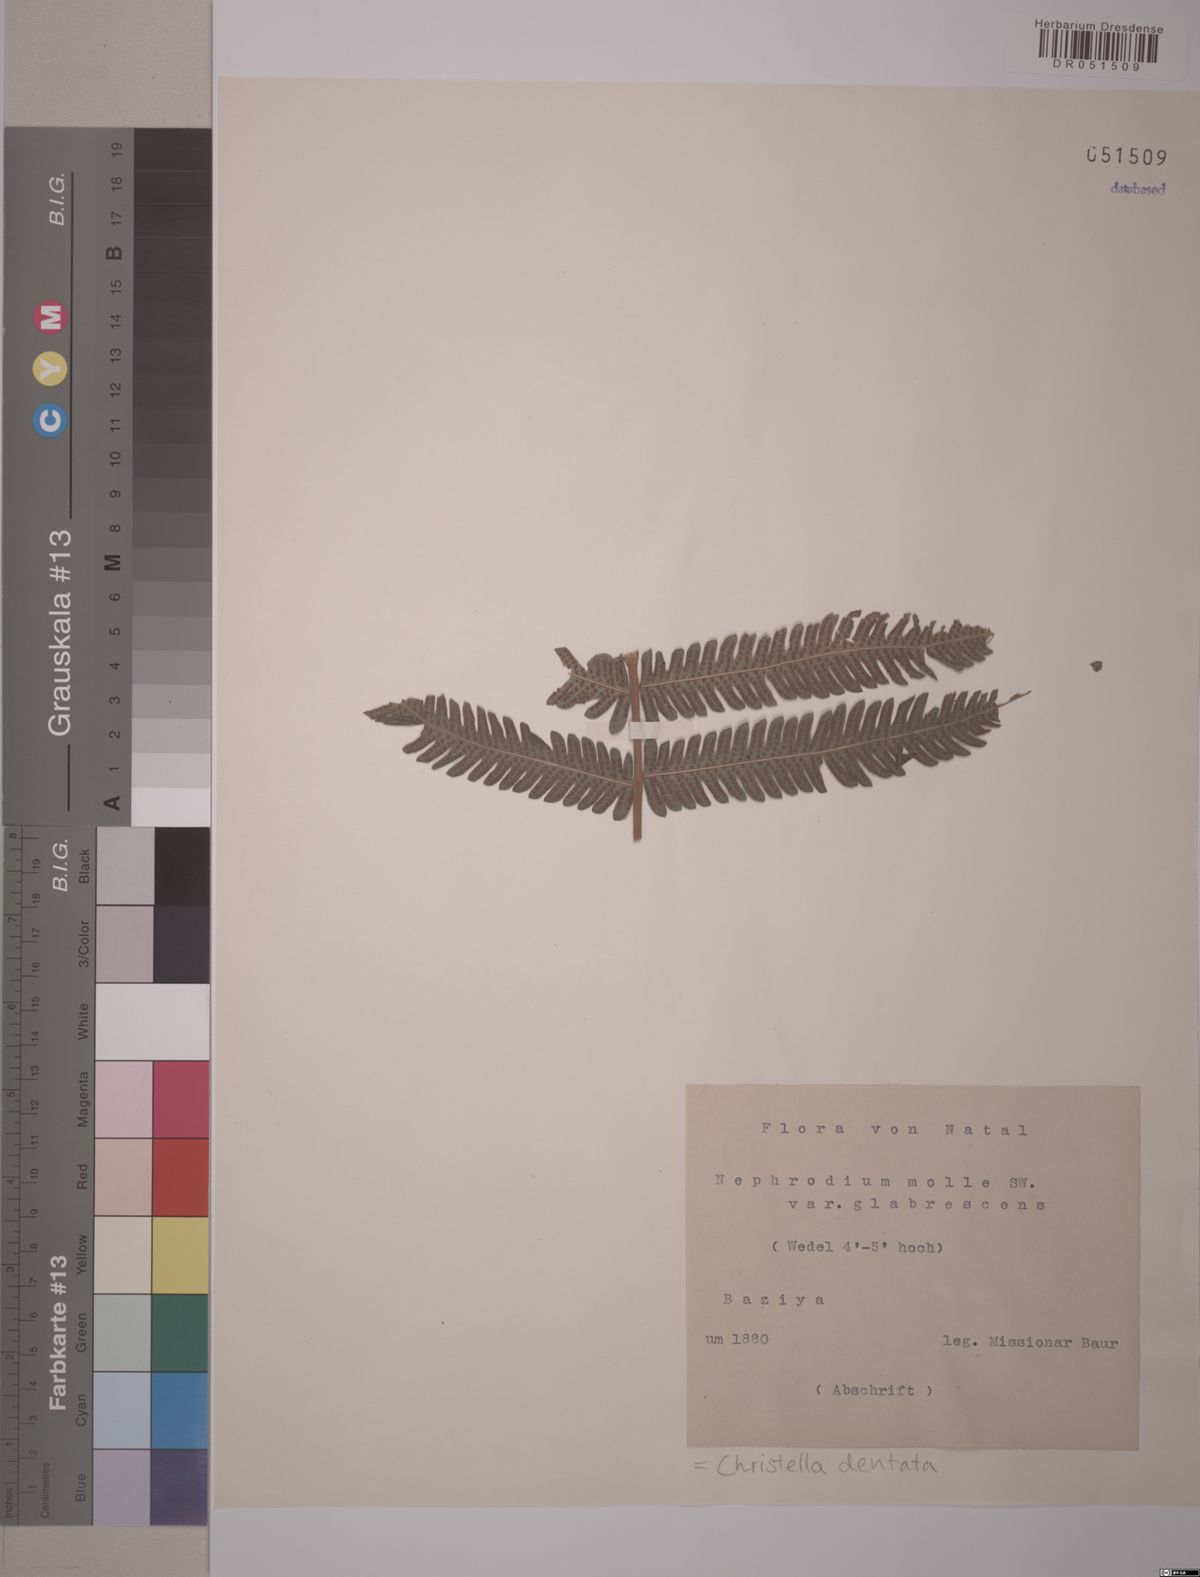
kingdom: Plantae
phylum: Tracheophyta
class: Polypodiopsida
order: Polypodiales
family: Thelypteridaceae
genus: Christella
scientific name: Christella dentata
